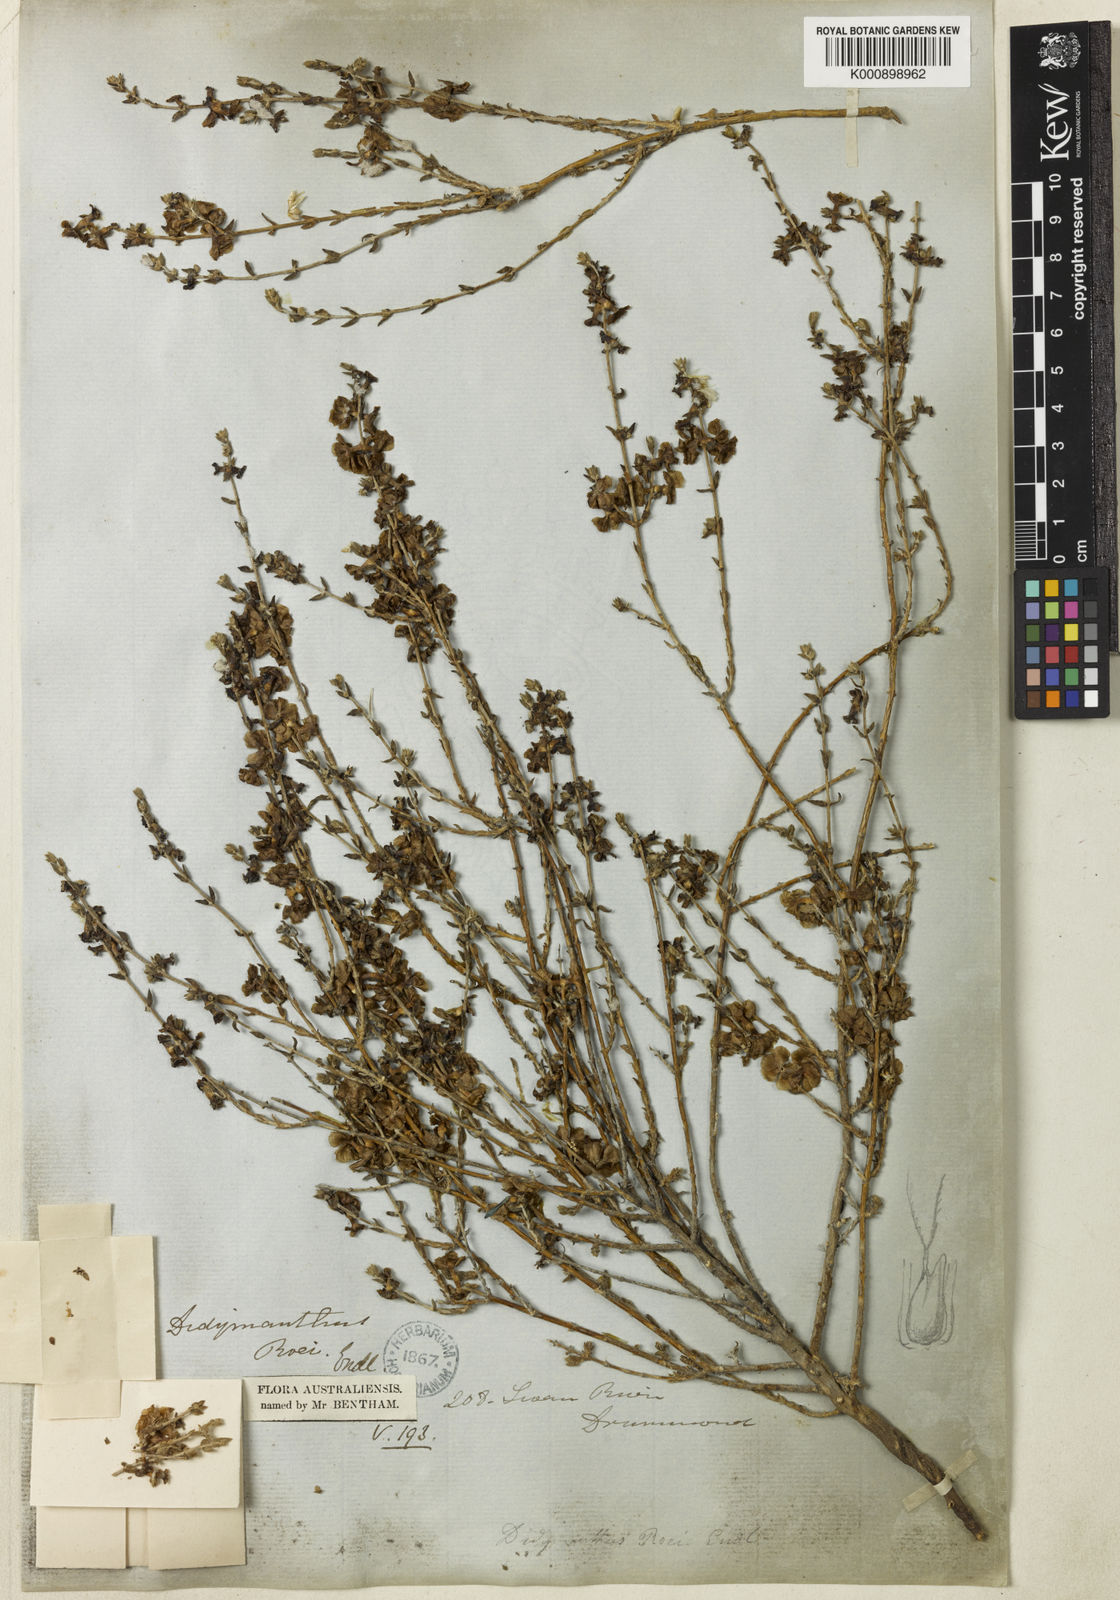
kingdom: Plantae
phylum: Tracheophyta
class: Magnoliopsida
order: Caryophyllales
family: Amaranthaceae
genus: Maireana
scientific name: Maireana
